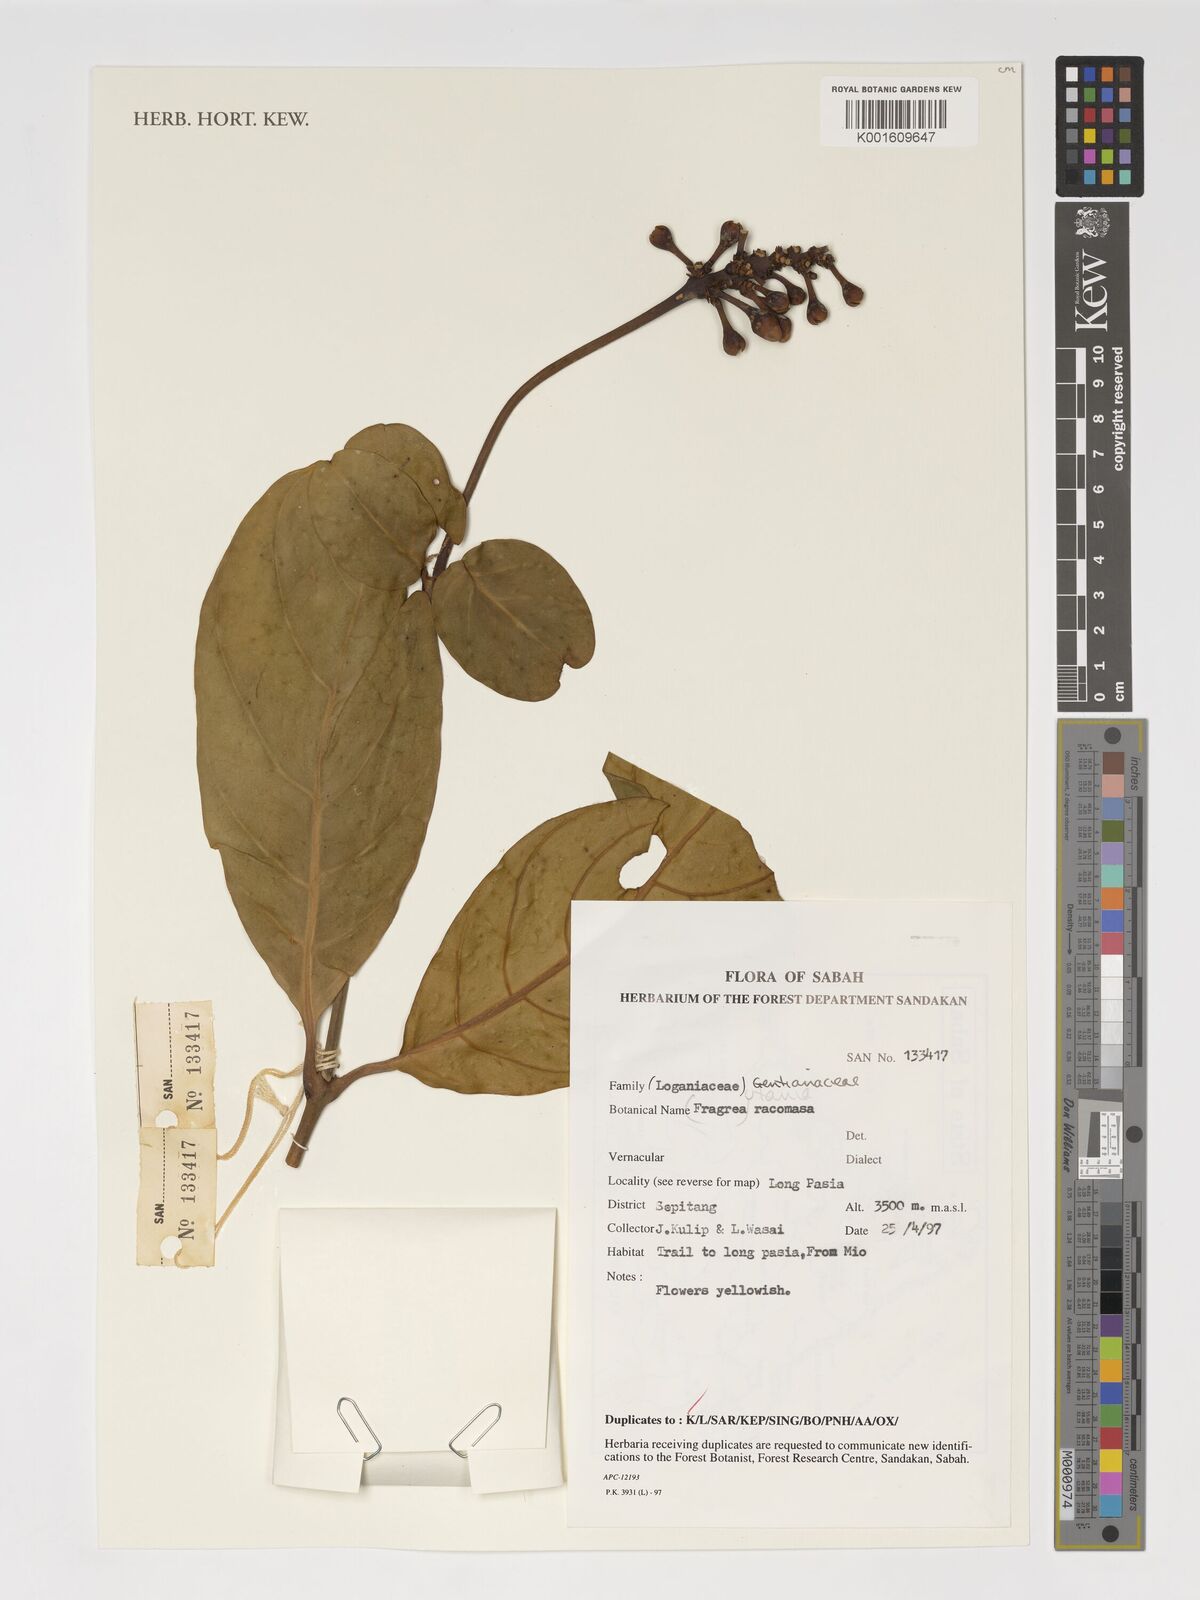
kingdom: Plantae
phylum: Tracheophyta
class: Magnoliopsida
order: Gentianales
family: Gentianaceae
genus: Utania
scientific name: Utania racemosa
